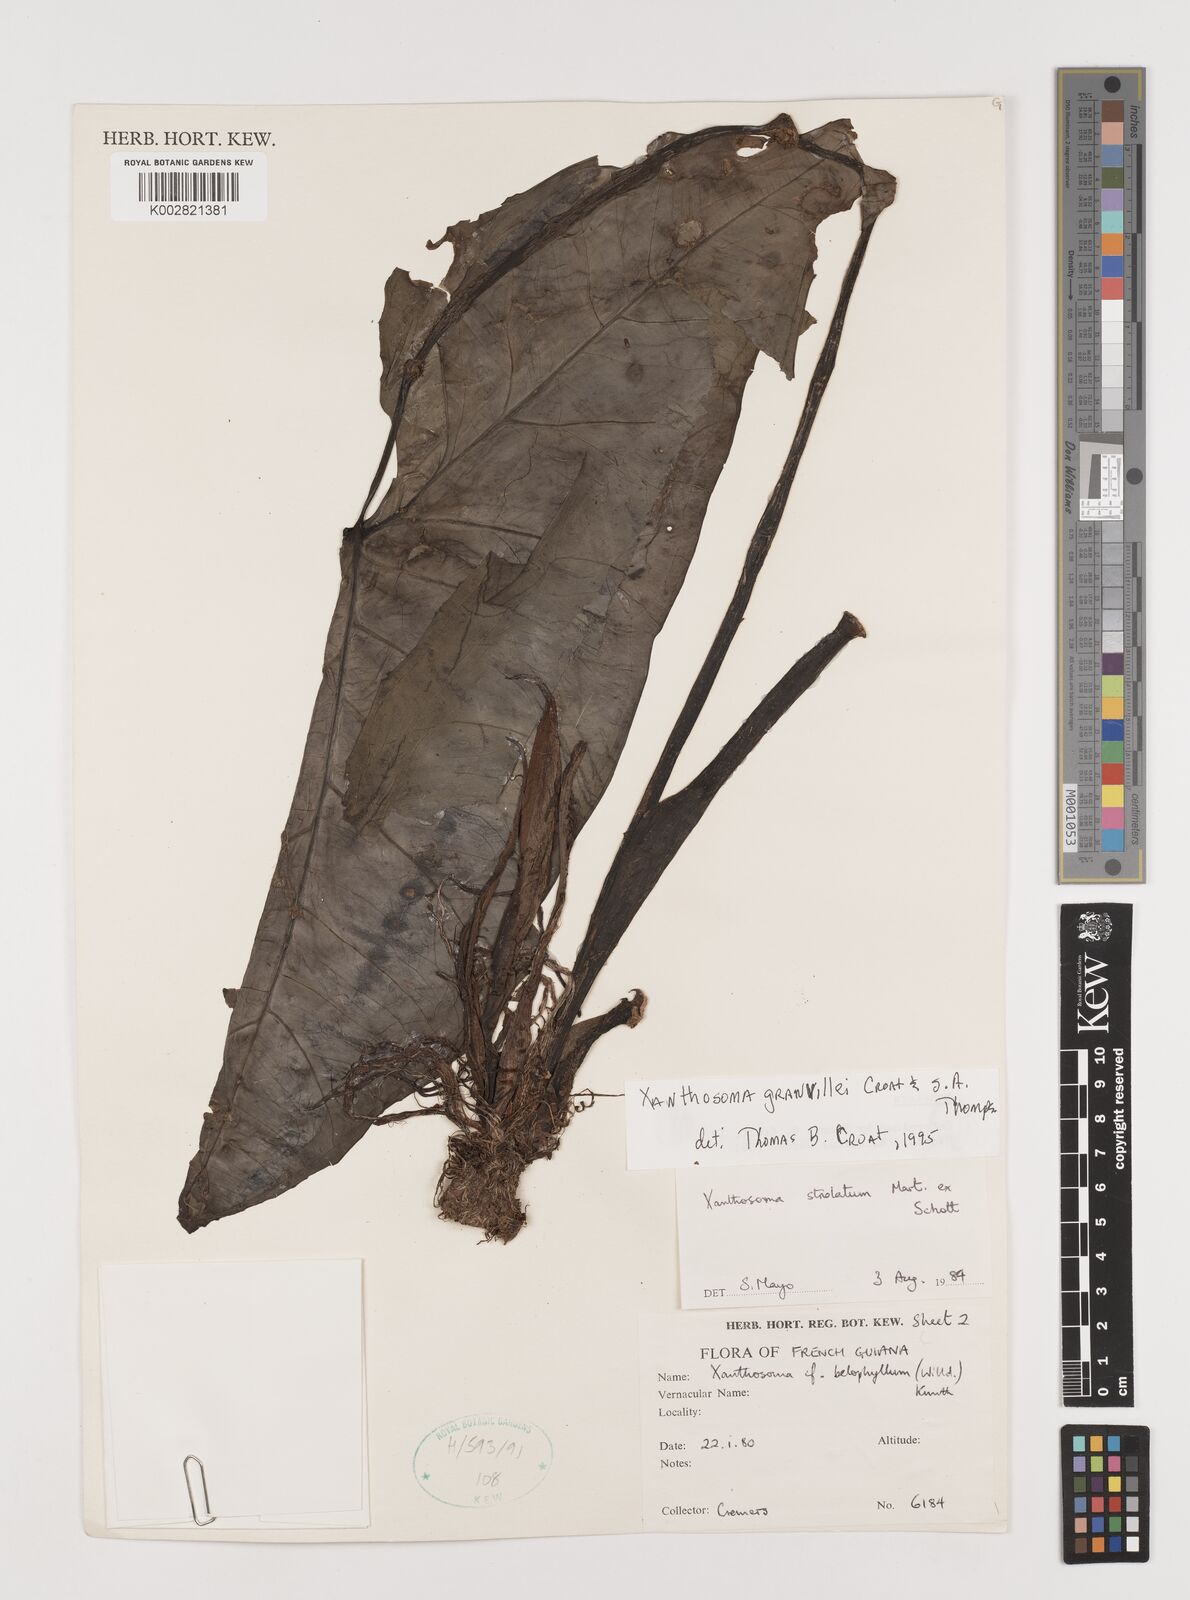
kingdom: Plantae
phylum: Tracheophyta
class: Liliopsida
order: Alismatales
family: Araceae
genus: Xanthosoma
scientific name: Xanthosoma granvillei
